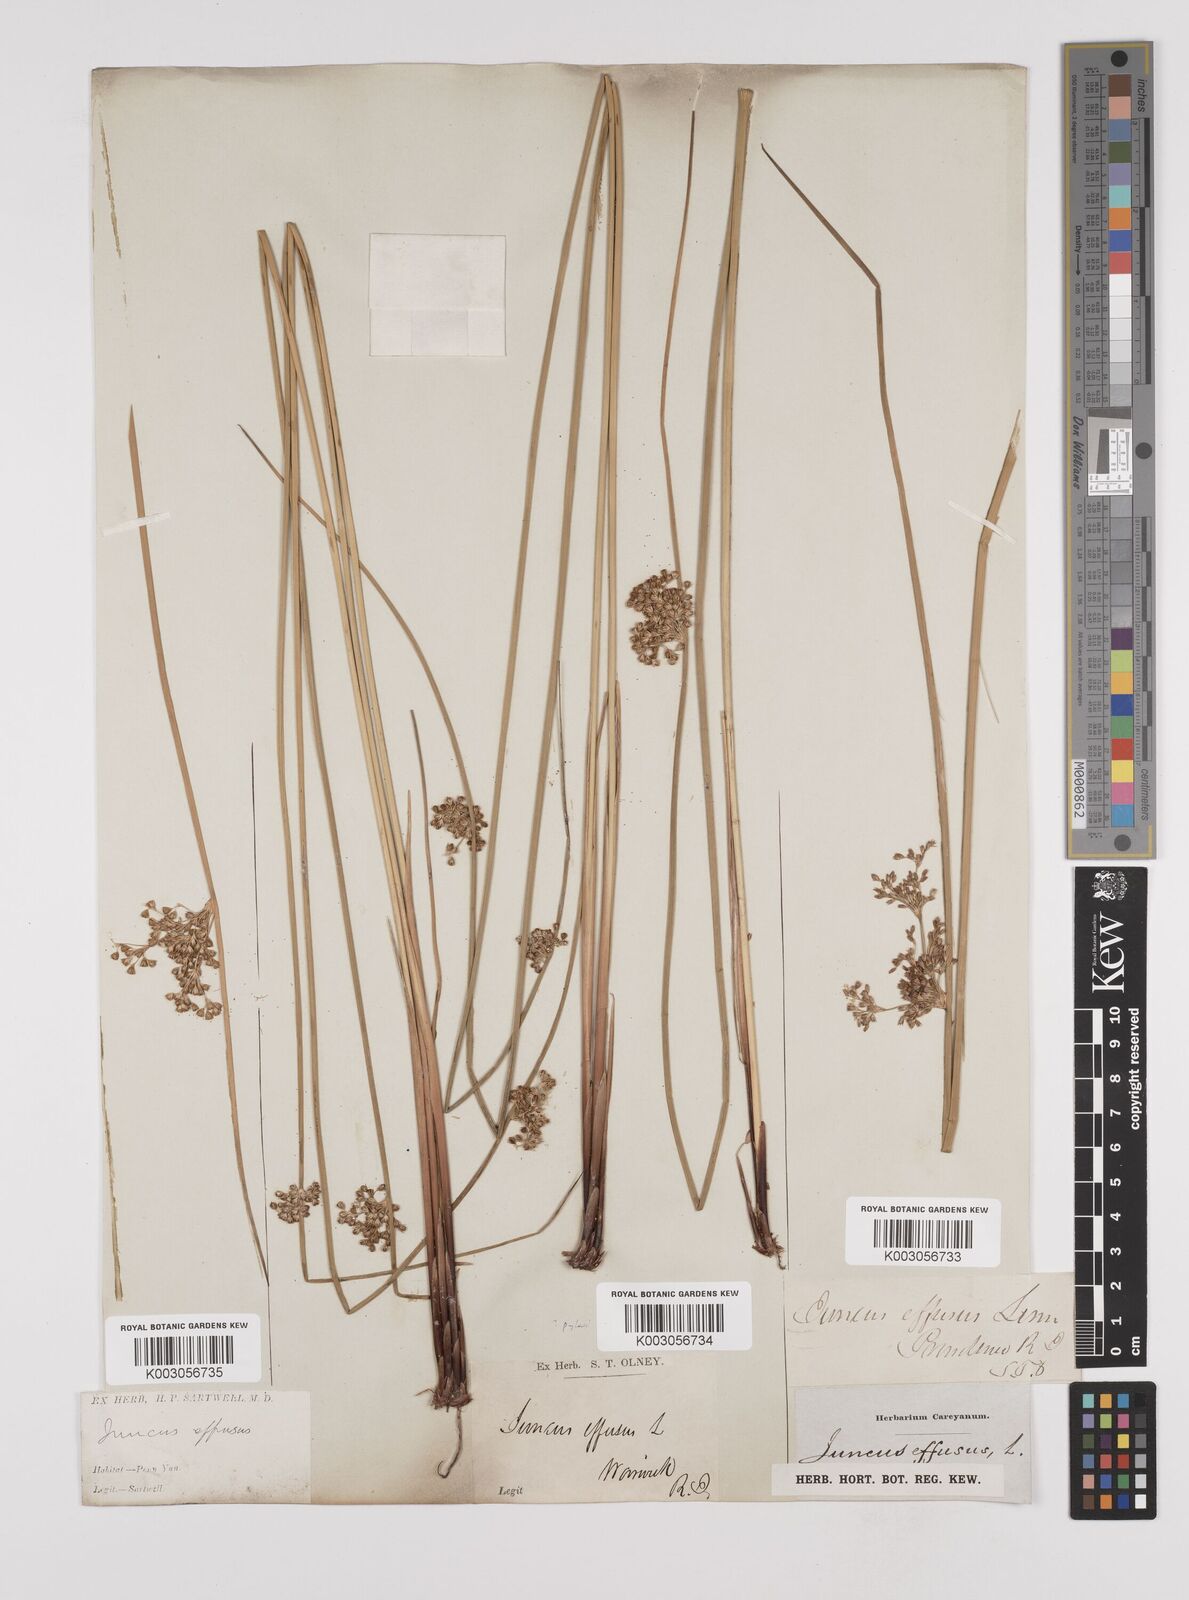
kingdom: Plantae
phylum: Tracheophyta
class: Liliopsida
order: Poales
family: Juncaceae
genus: Juncus
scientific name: Juncus effusus
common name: Soft rush
